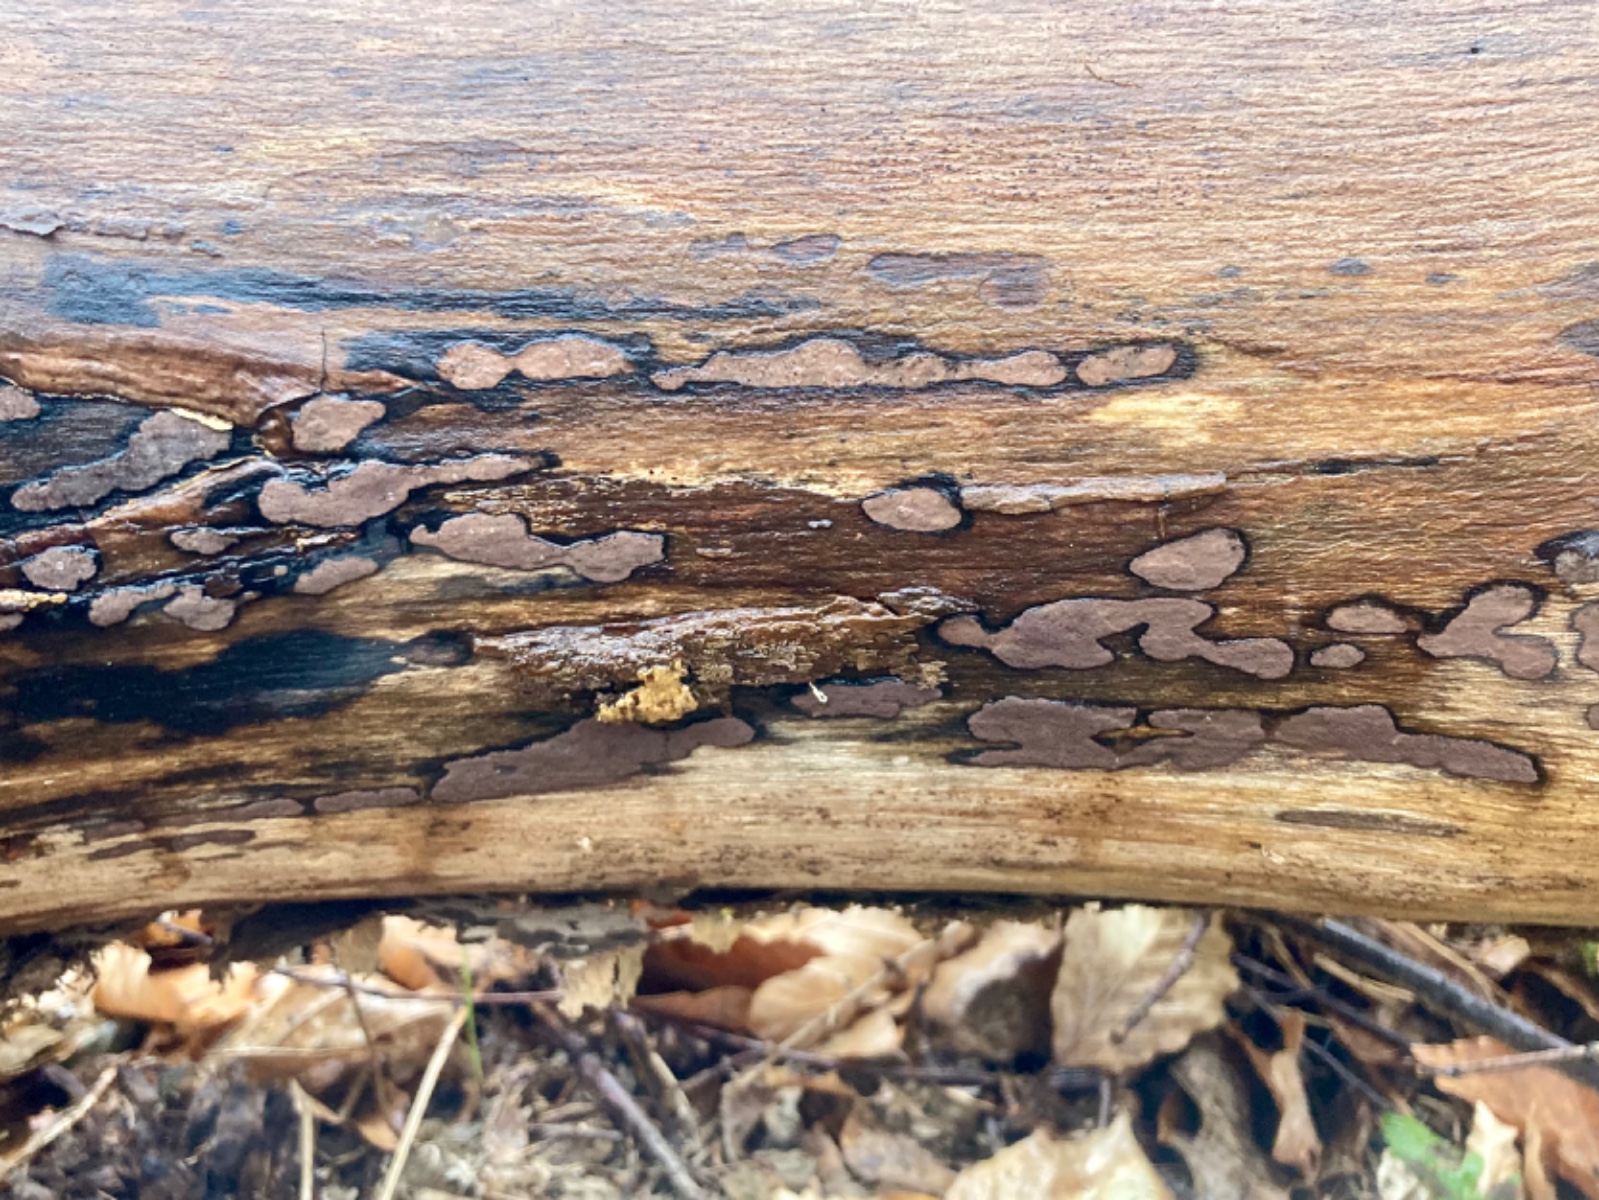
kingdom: Fungi
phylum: Ascomycota
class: Sordariomycetes
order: Xylariales
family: Hypoxylaceae
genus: Hypoxylon
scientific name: Hypoxylon petriniae
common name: nedsænket kulbær
